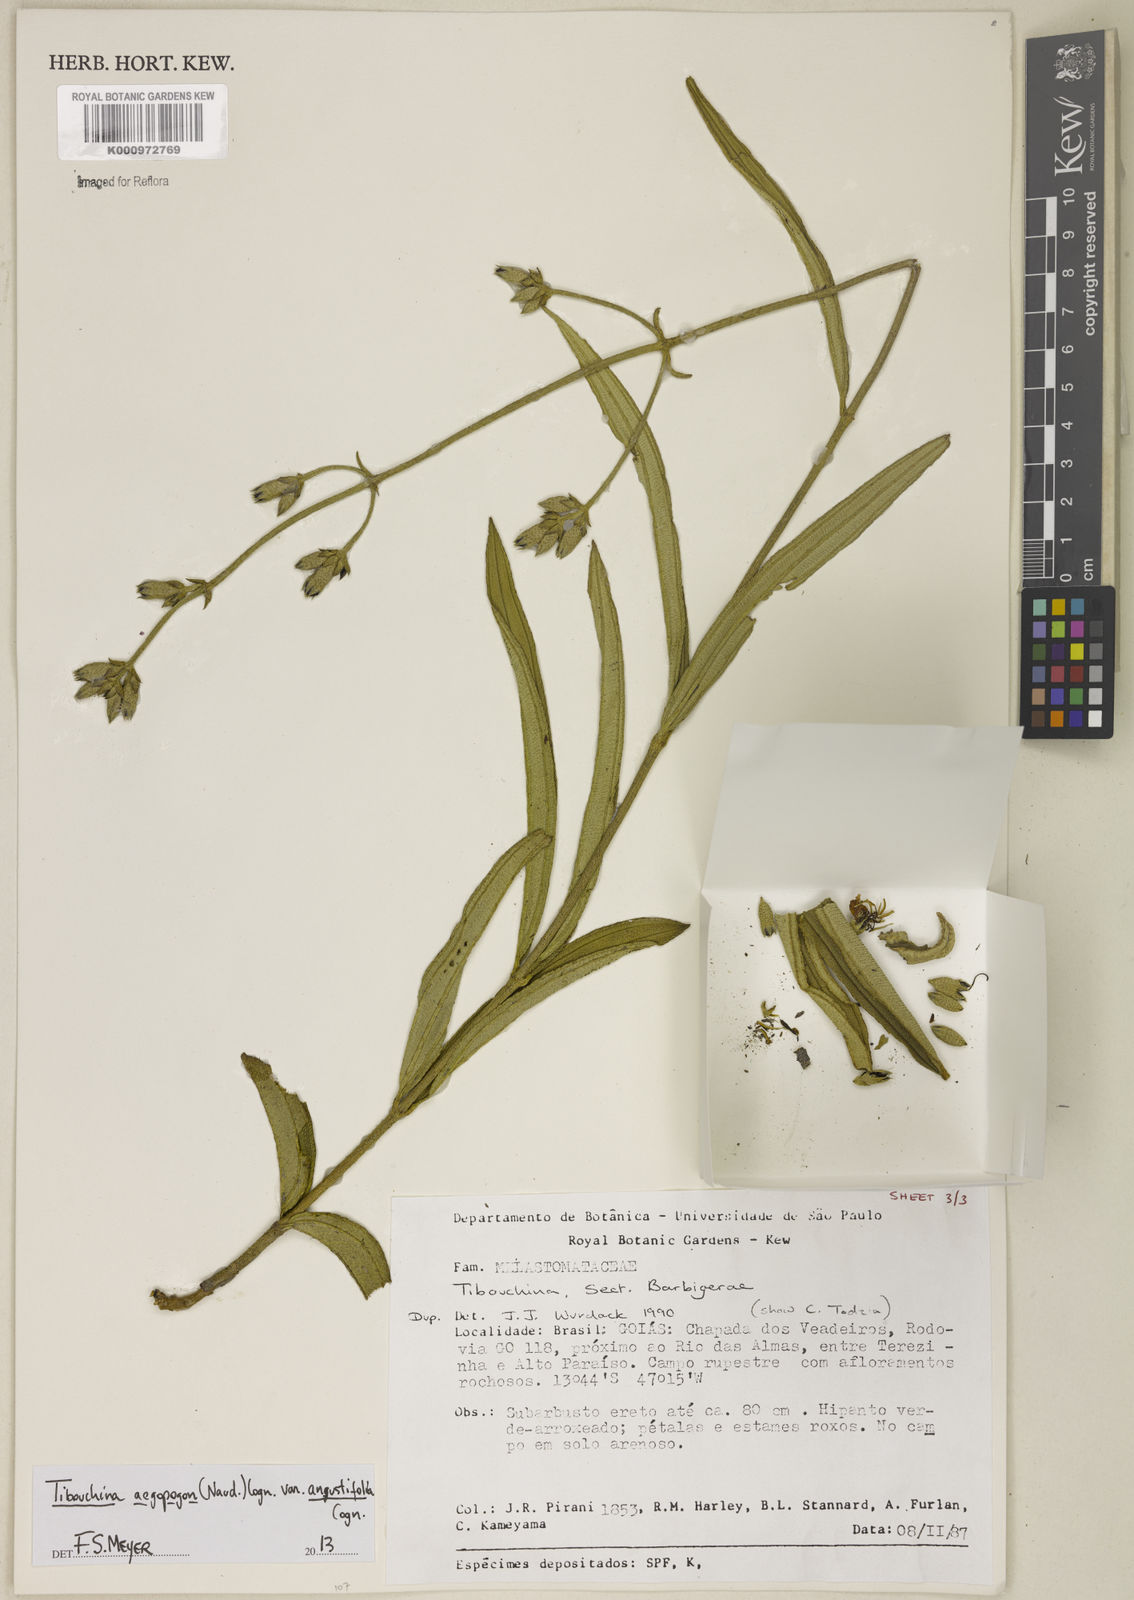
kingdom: Plantae
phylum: Tracheophyta
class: Magnoliopsida
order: Myrtales
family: Melastomataceae
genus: Pleroma
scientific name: Pleroma aegopogon
